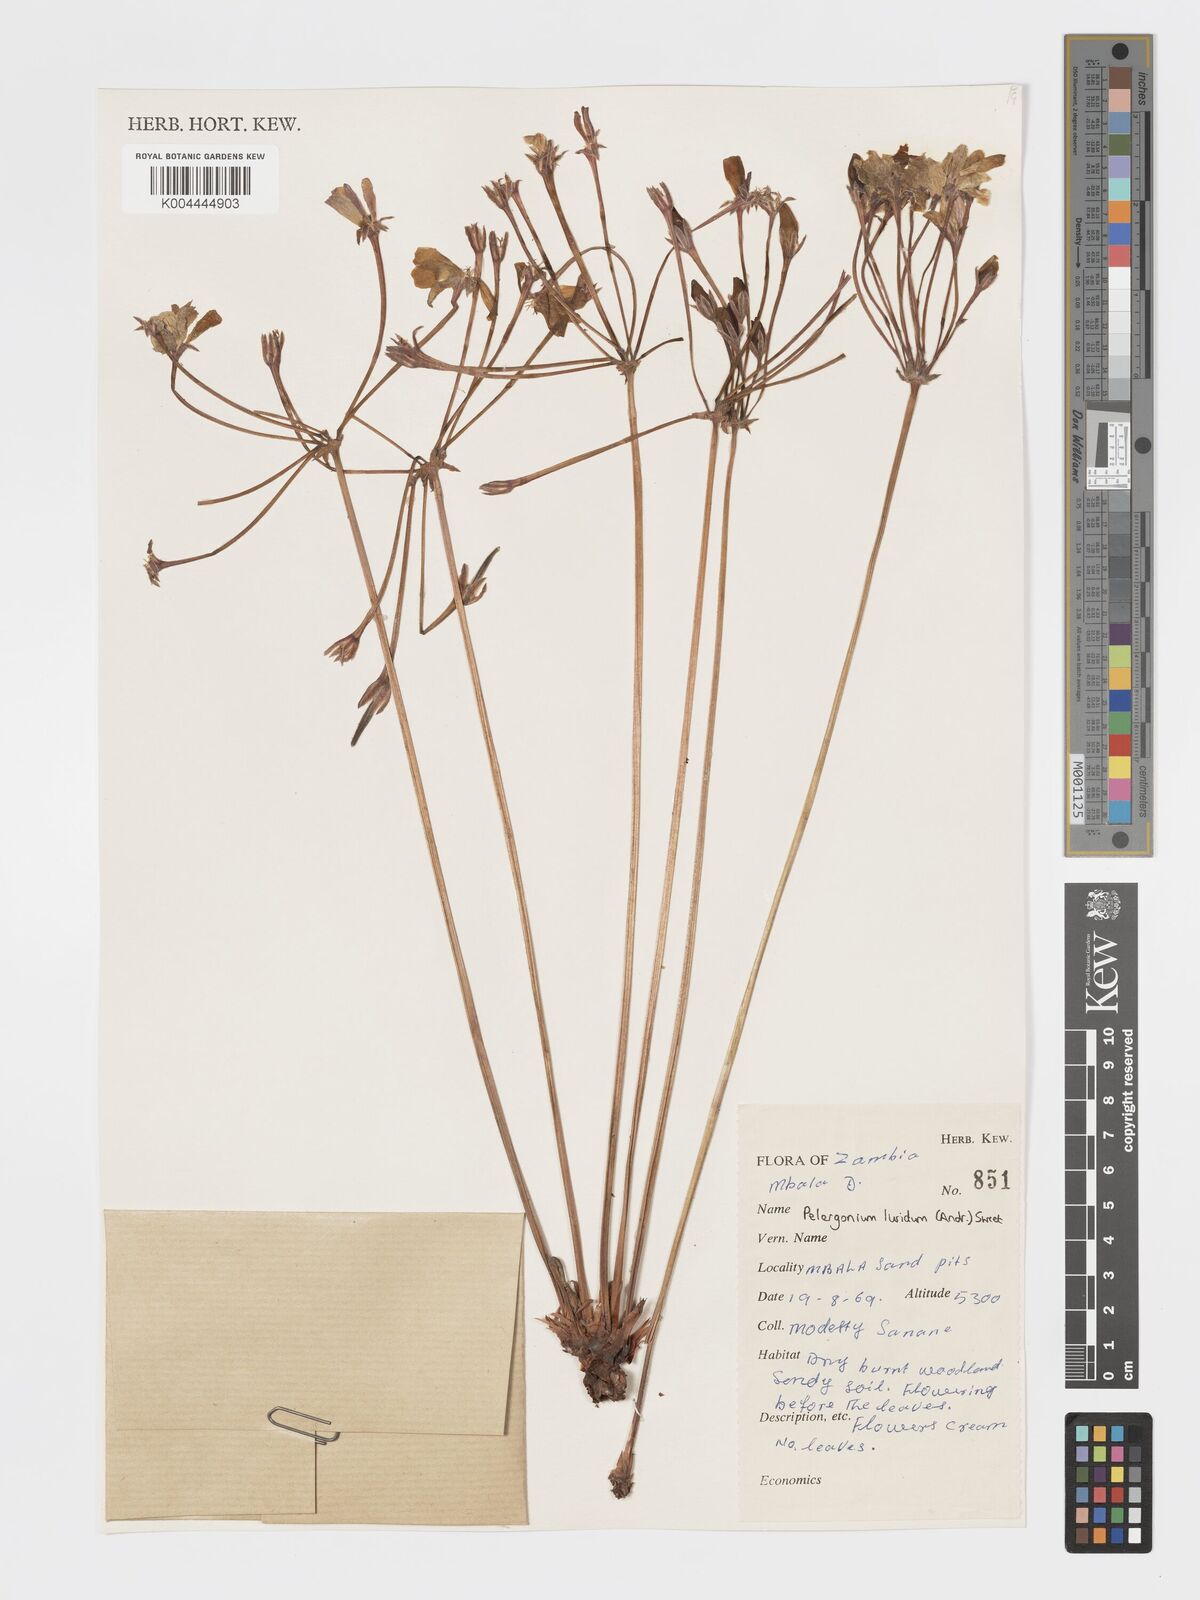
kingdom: Plantae
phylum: Tracheophyta
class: Magnoliopsida
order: Geraniales
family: Geraniaceae
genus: Pelargonium
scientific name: Pelargonium luridum
